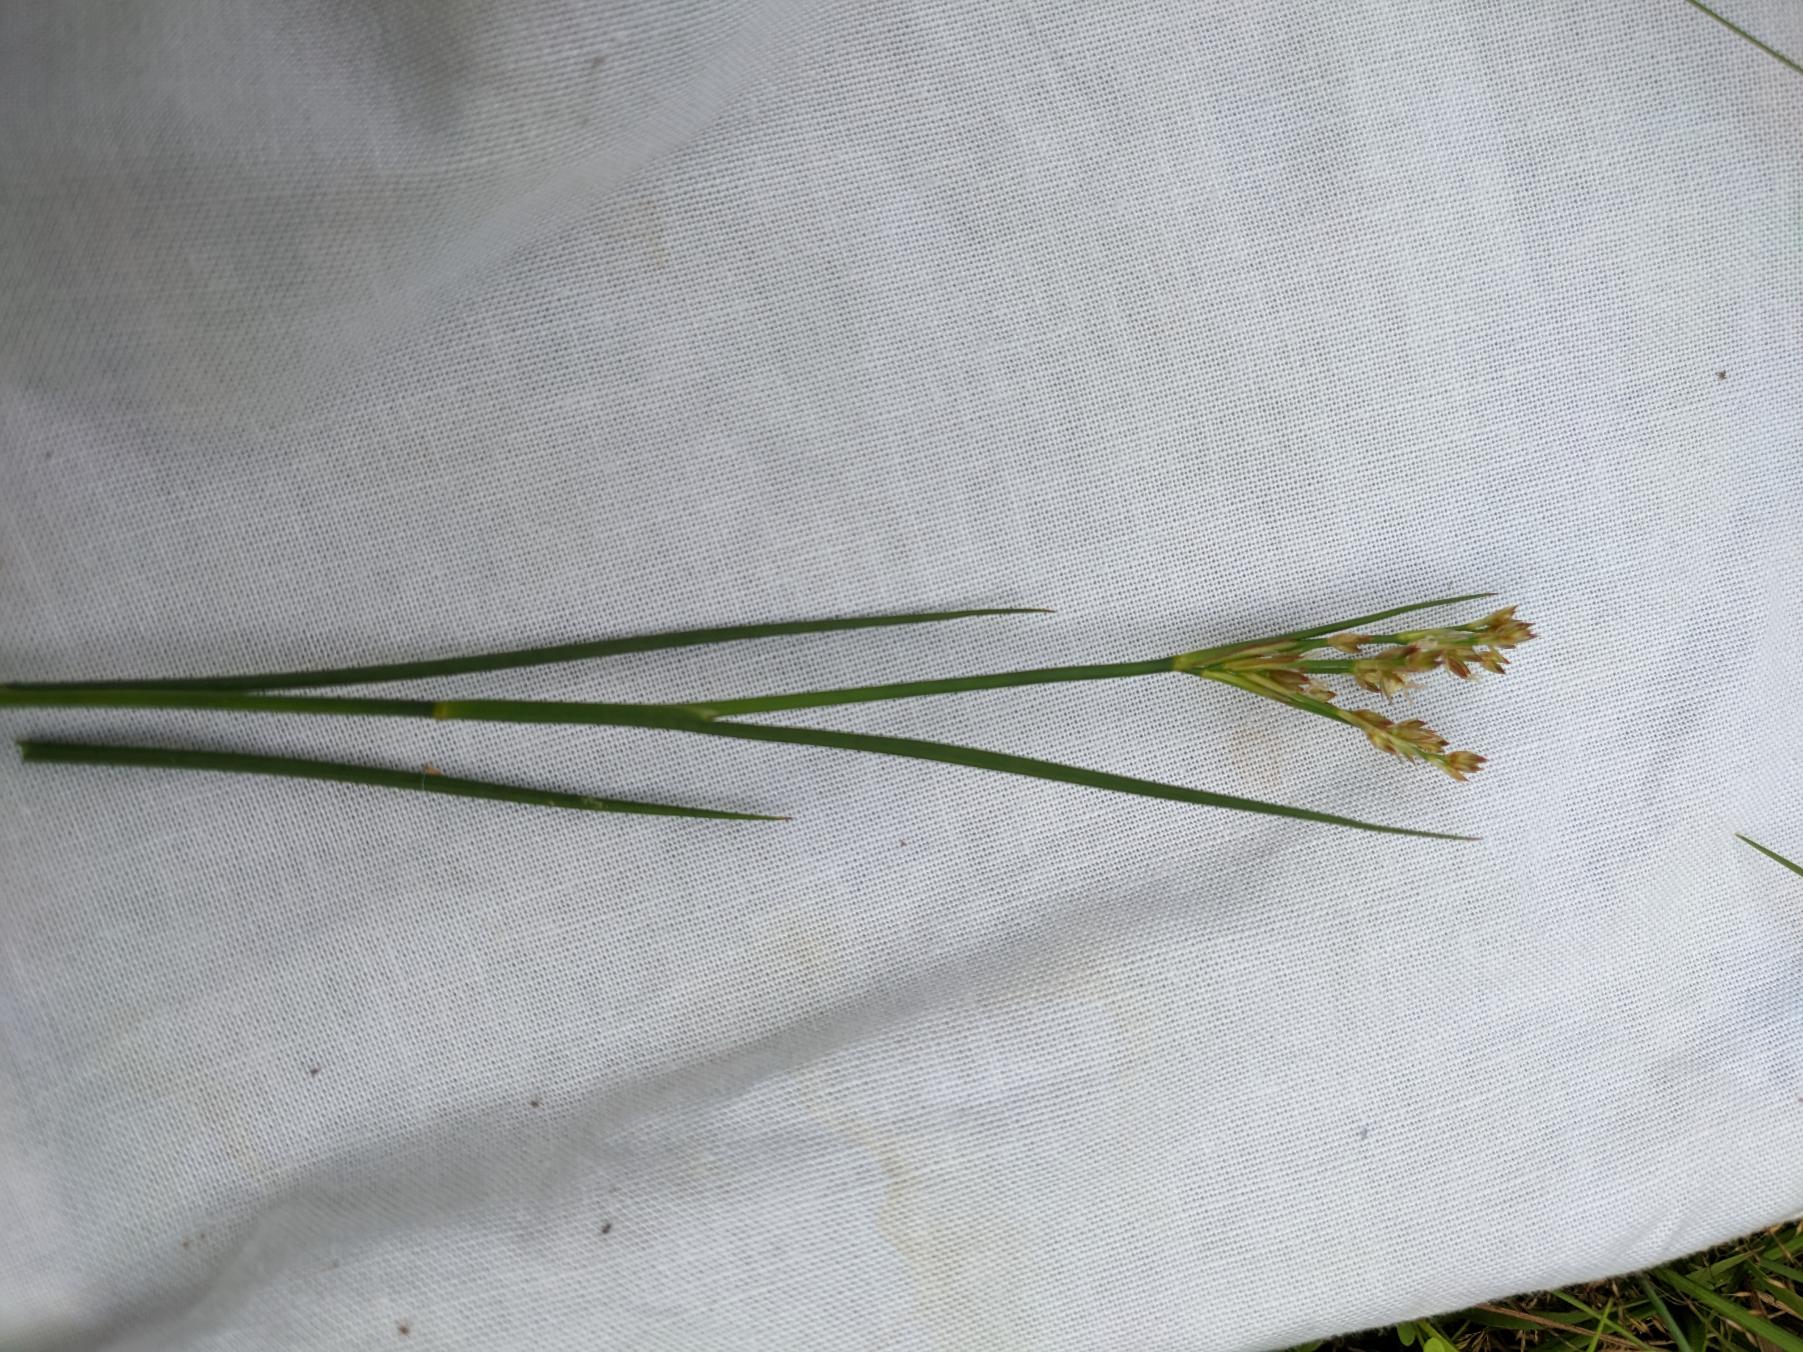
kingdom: Plantae
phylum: Tracheophyta
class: Liliopsida
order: Poales
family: Juncaceae
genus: Juncus
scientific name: Juncus articulatus
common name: Glanskapslet siv
